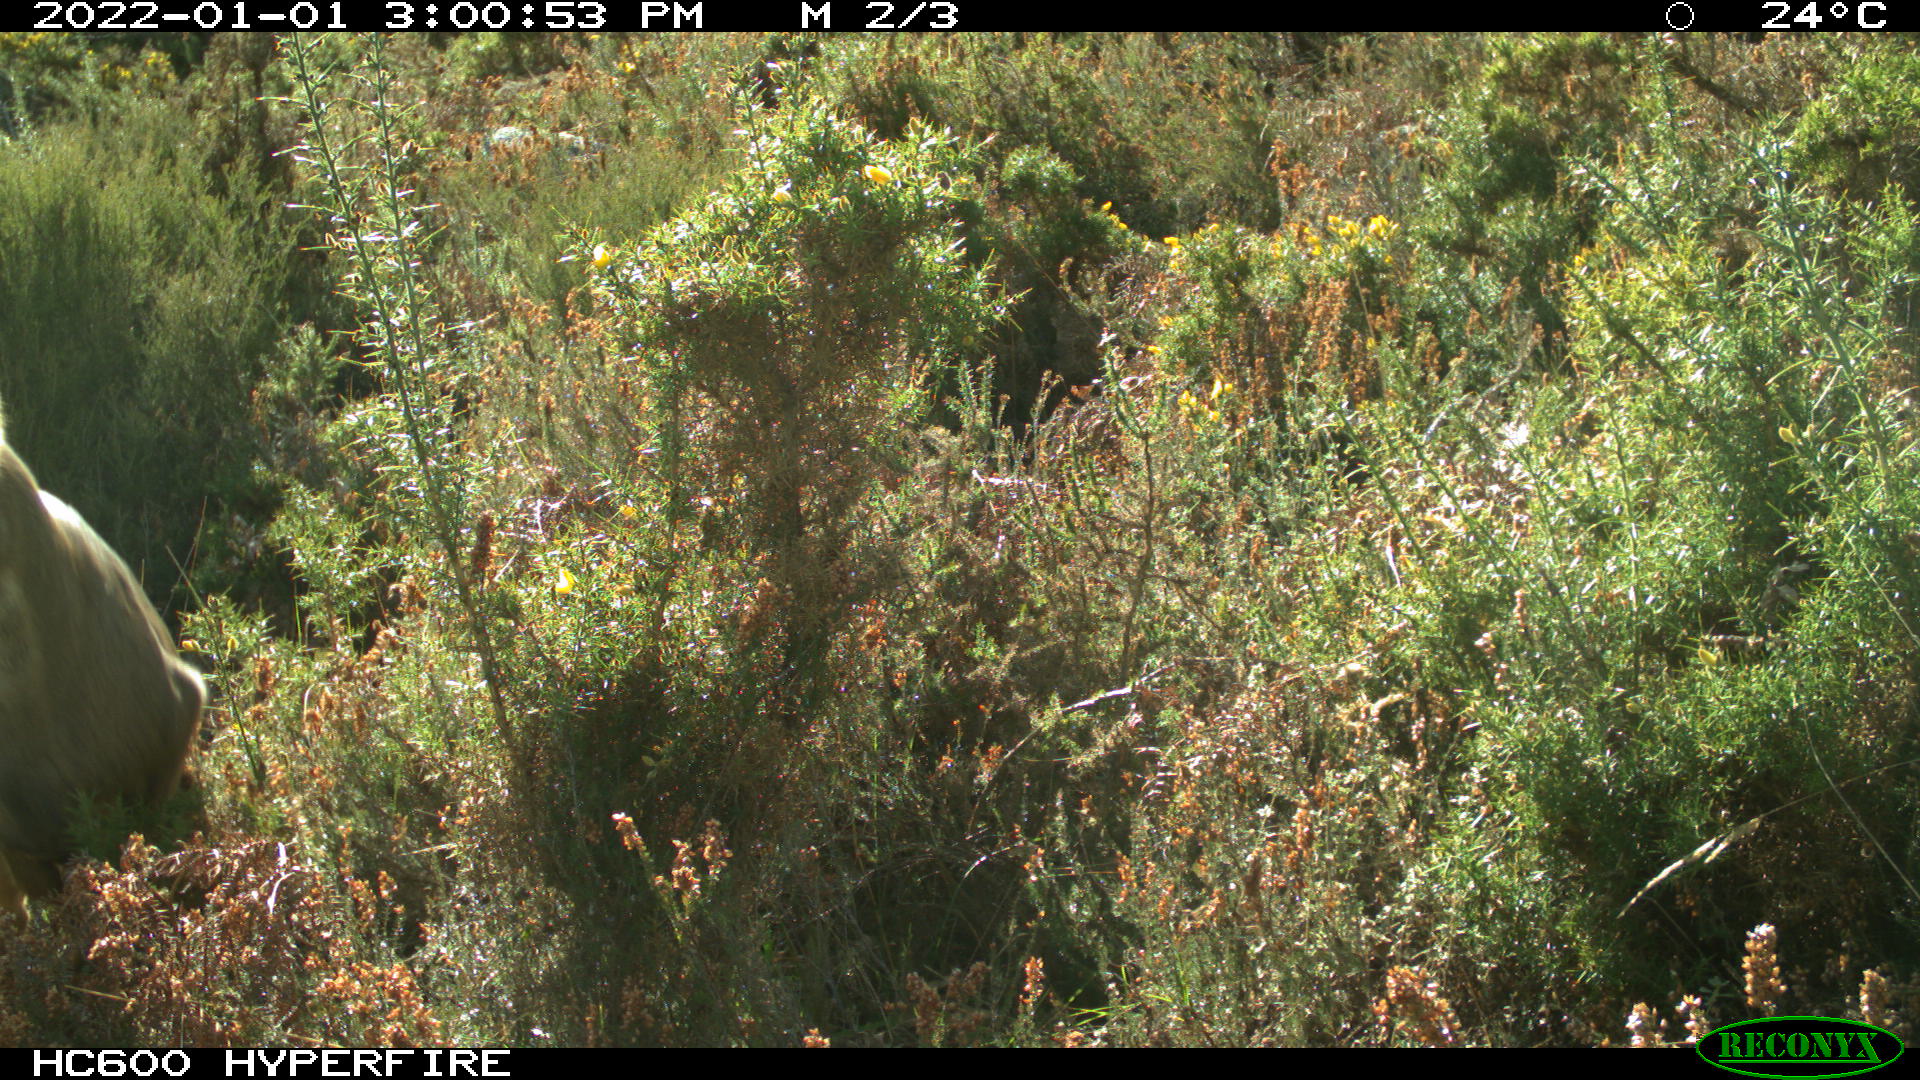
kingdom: Animalia
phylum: Chordata
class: Mammalia
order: Artiodactyla
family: Cervidae
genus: Capreolus
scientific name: Capreolus capreolus
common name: Western roe deer
